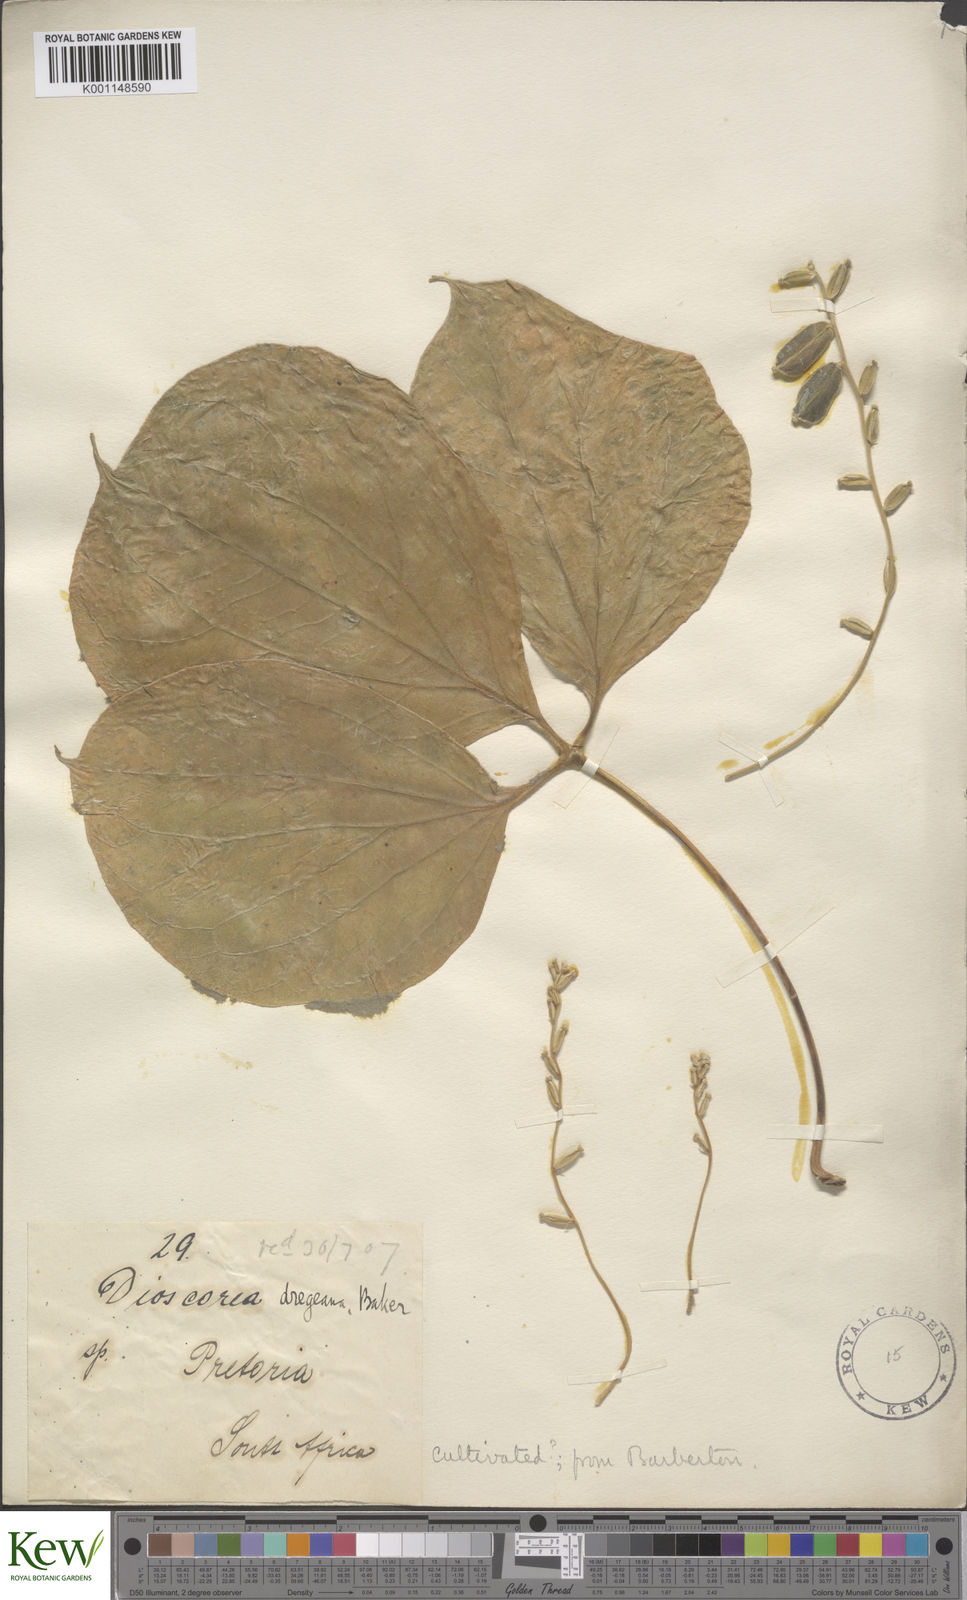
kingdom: Plantae
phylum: Tracheophyta
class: Liliopsida
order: Dioscoreales
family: Dioscoreaceae
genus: Dioscorea
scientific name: Dioscorea dregeana
